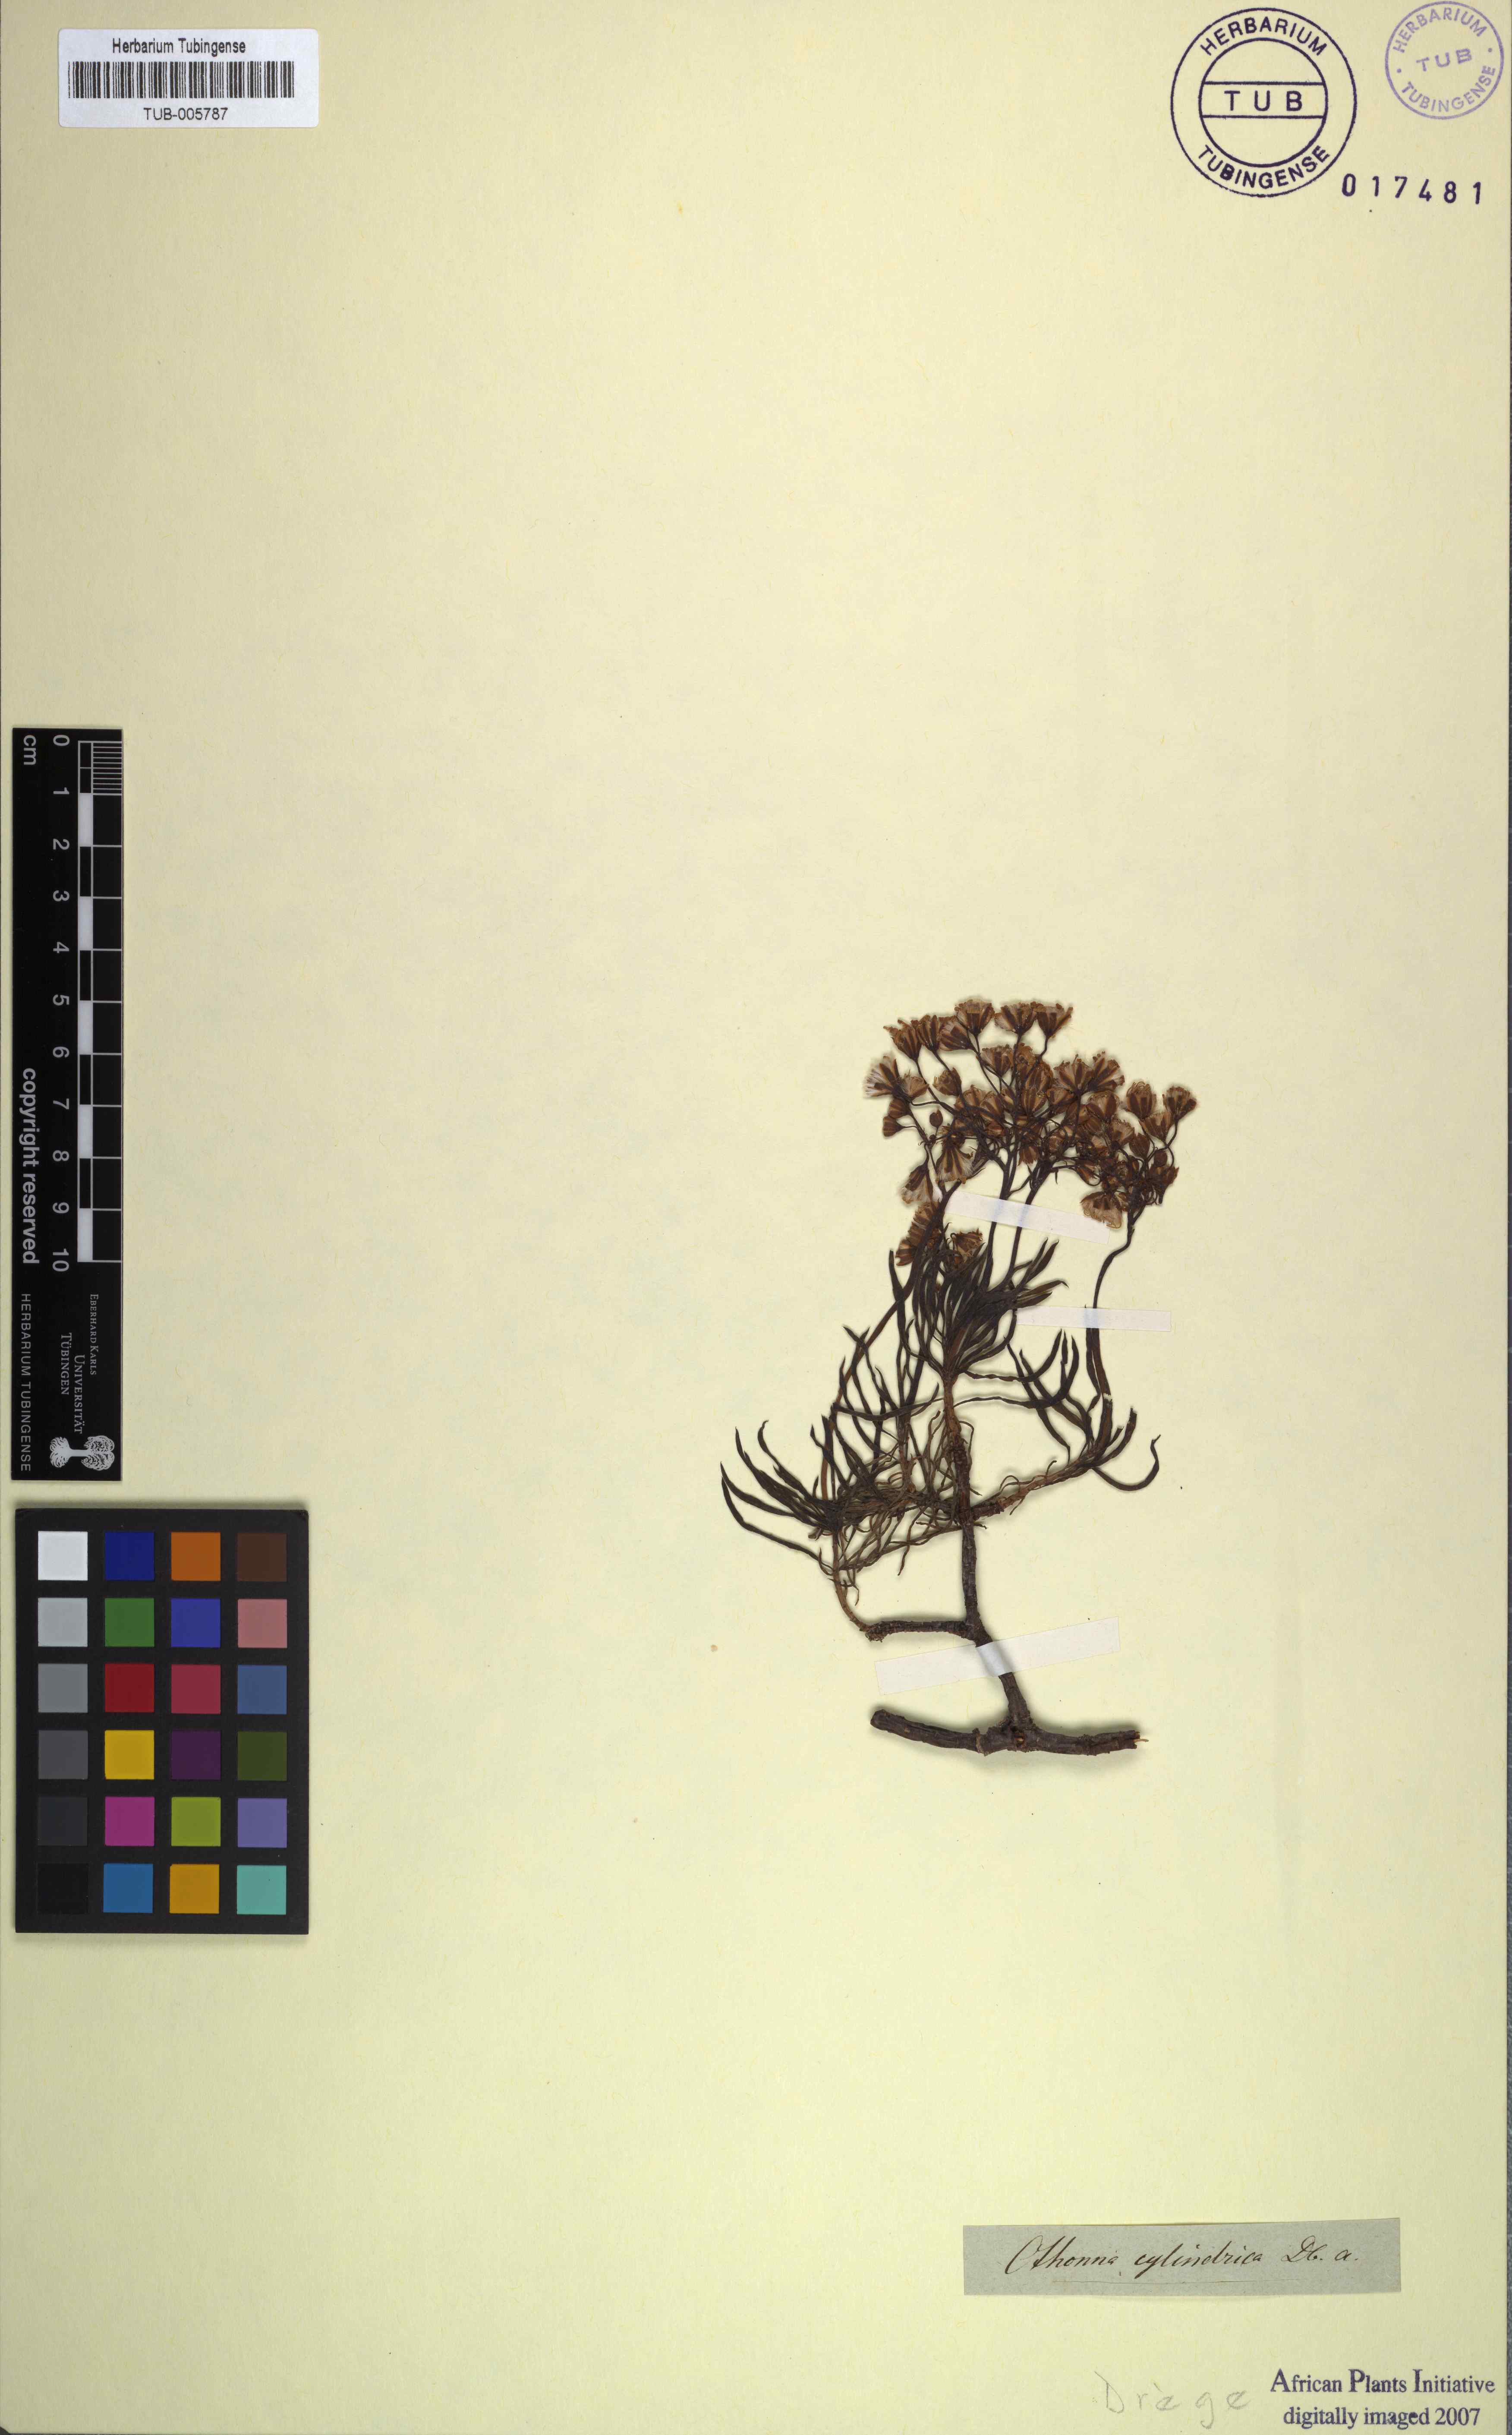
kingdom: Plantae
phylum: Tracheophyta
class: Magnoliopsida
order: Asterales
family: Asteraceae
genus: Crassothonna
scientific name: Crassothonna cylindrica
